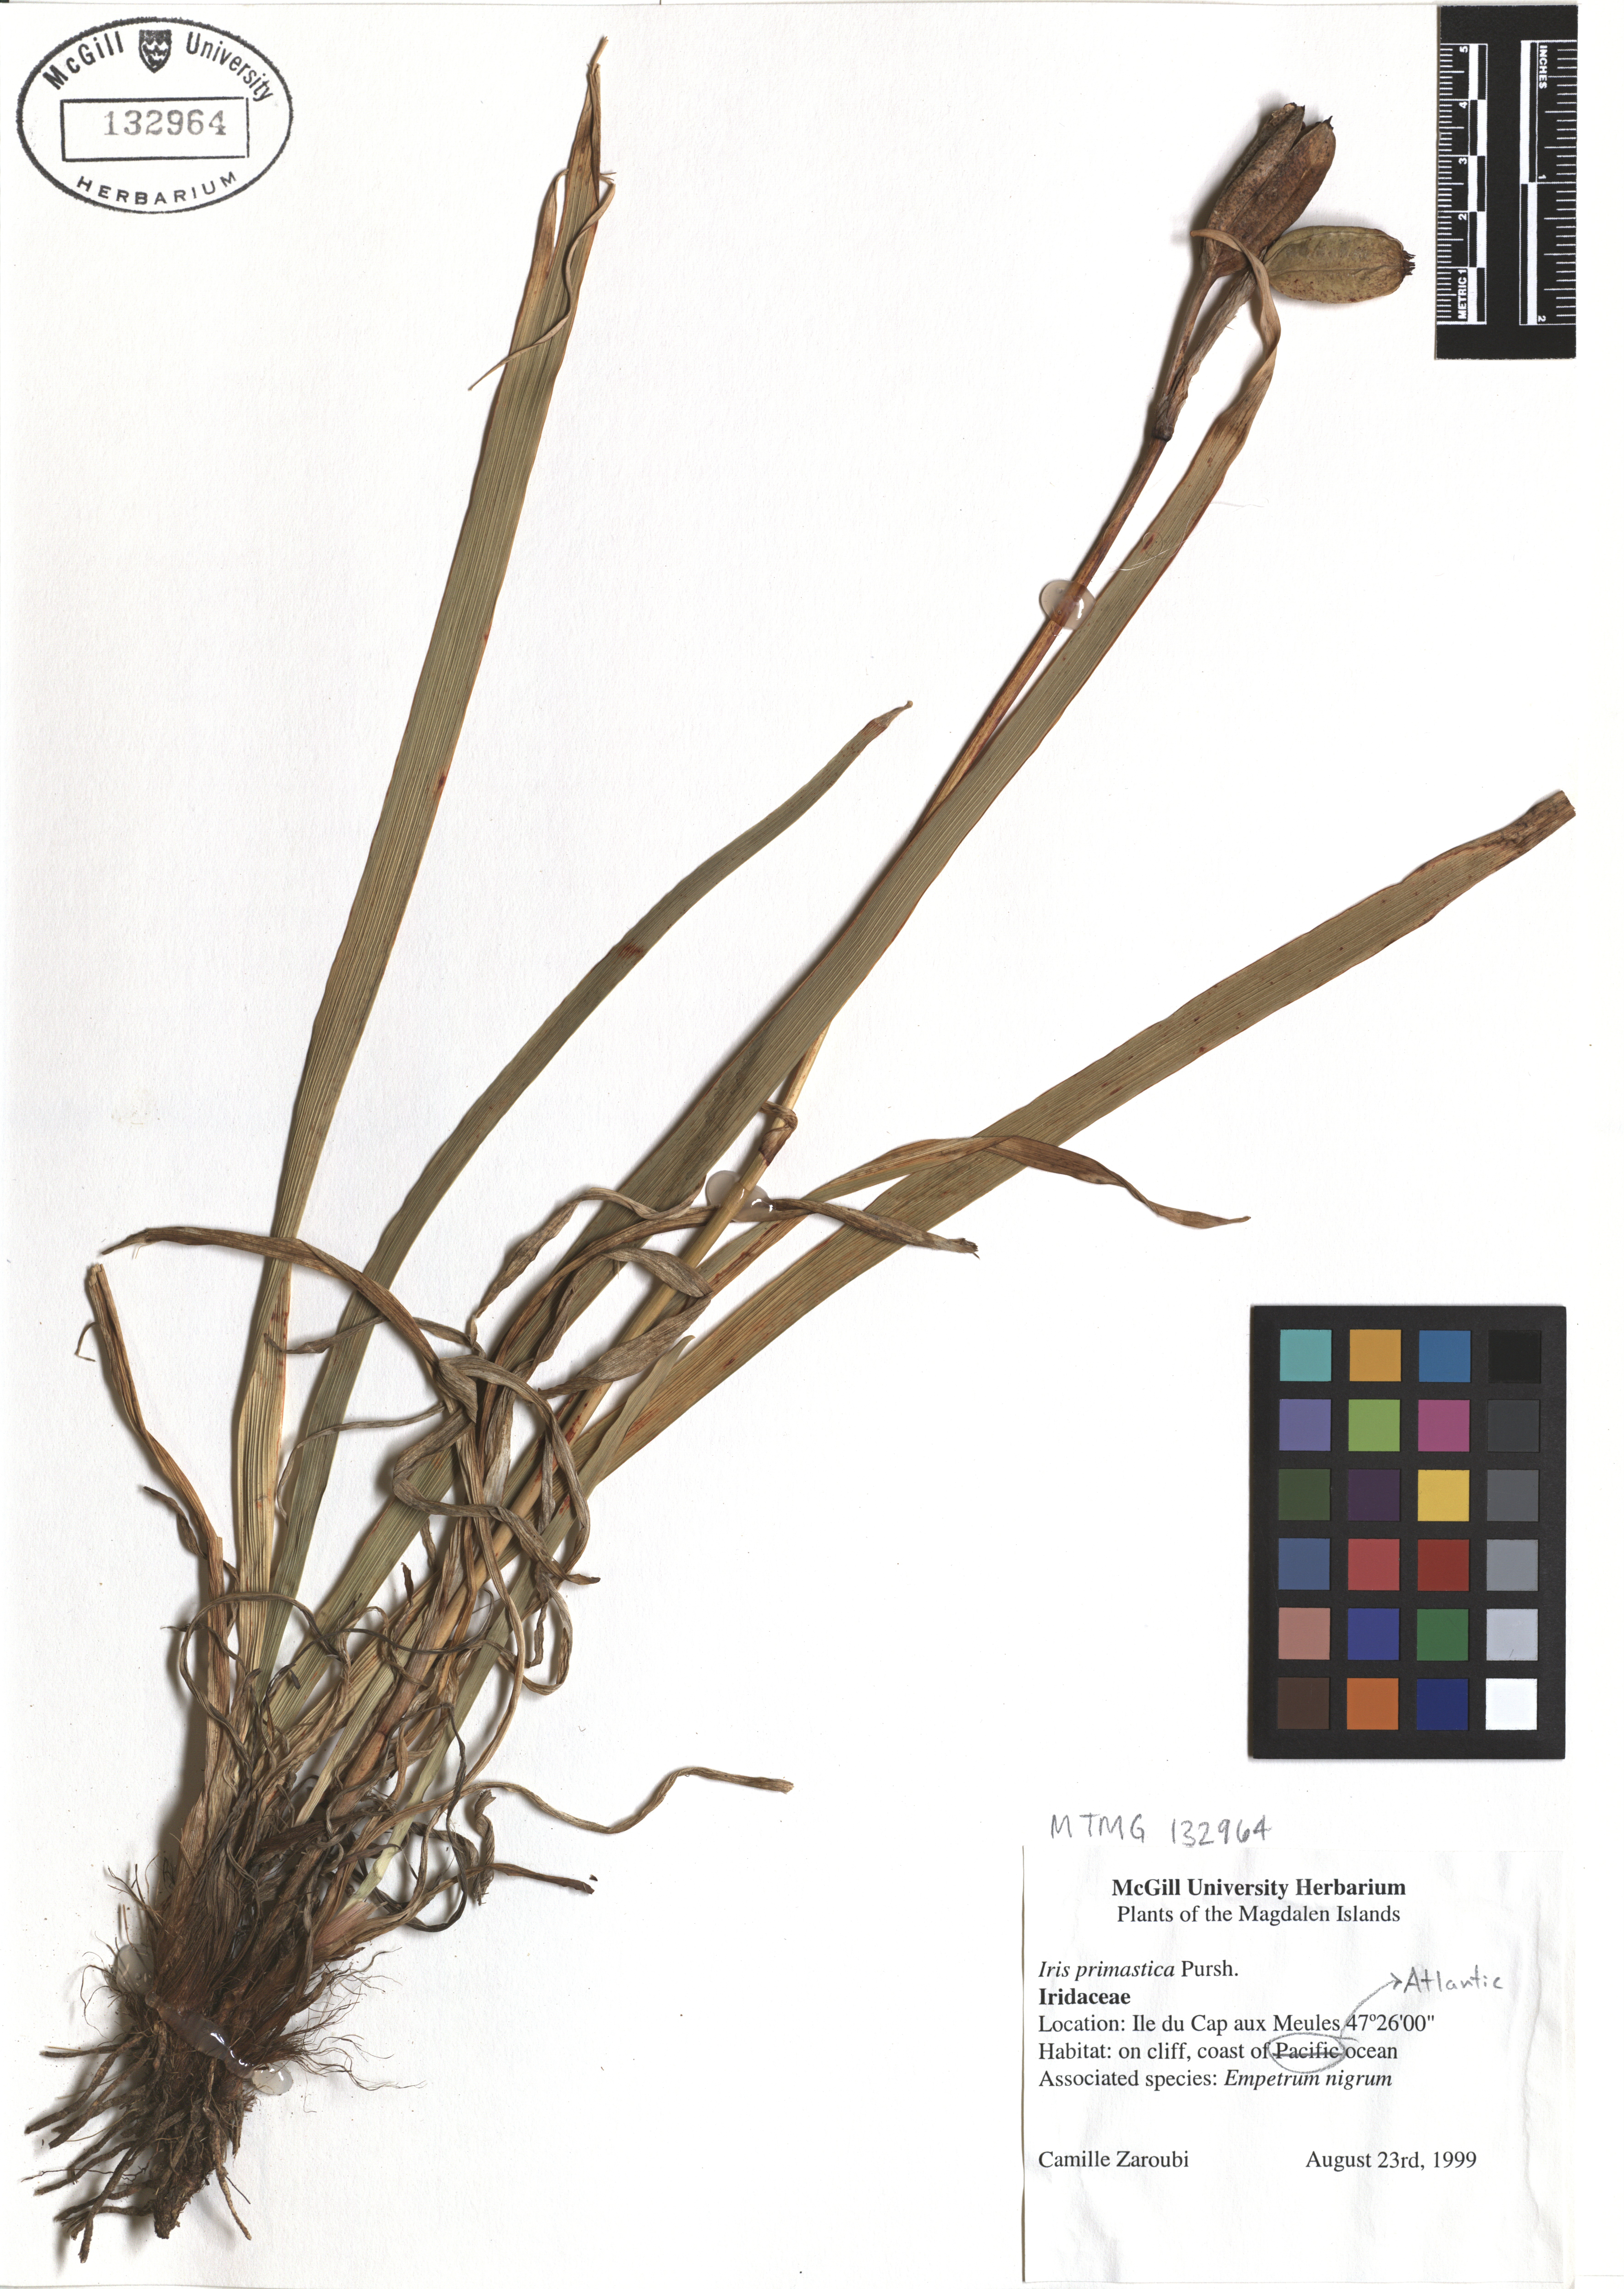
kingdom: Plantae
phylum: Tracheophyta
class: Liliopsida
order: Asparagales
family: Iridaceae
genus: Iris
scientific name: Iris prismatica
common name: Slender blue flag
